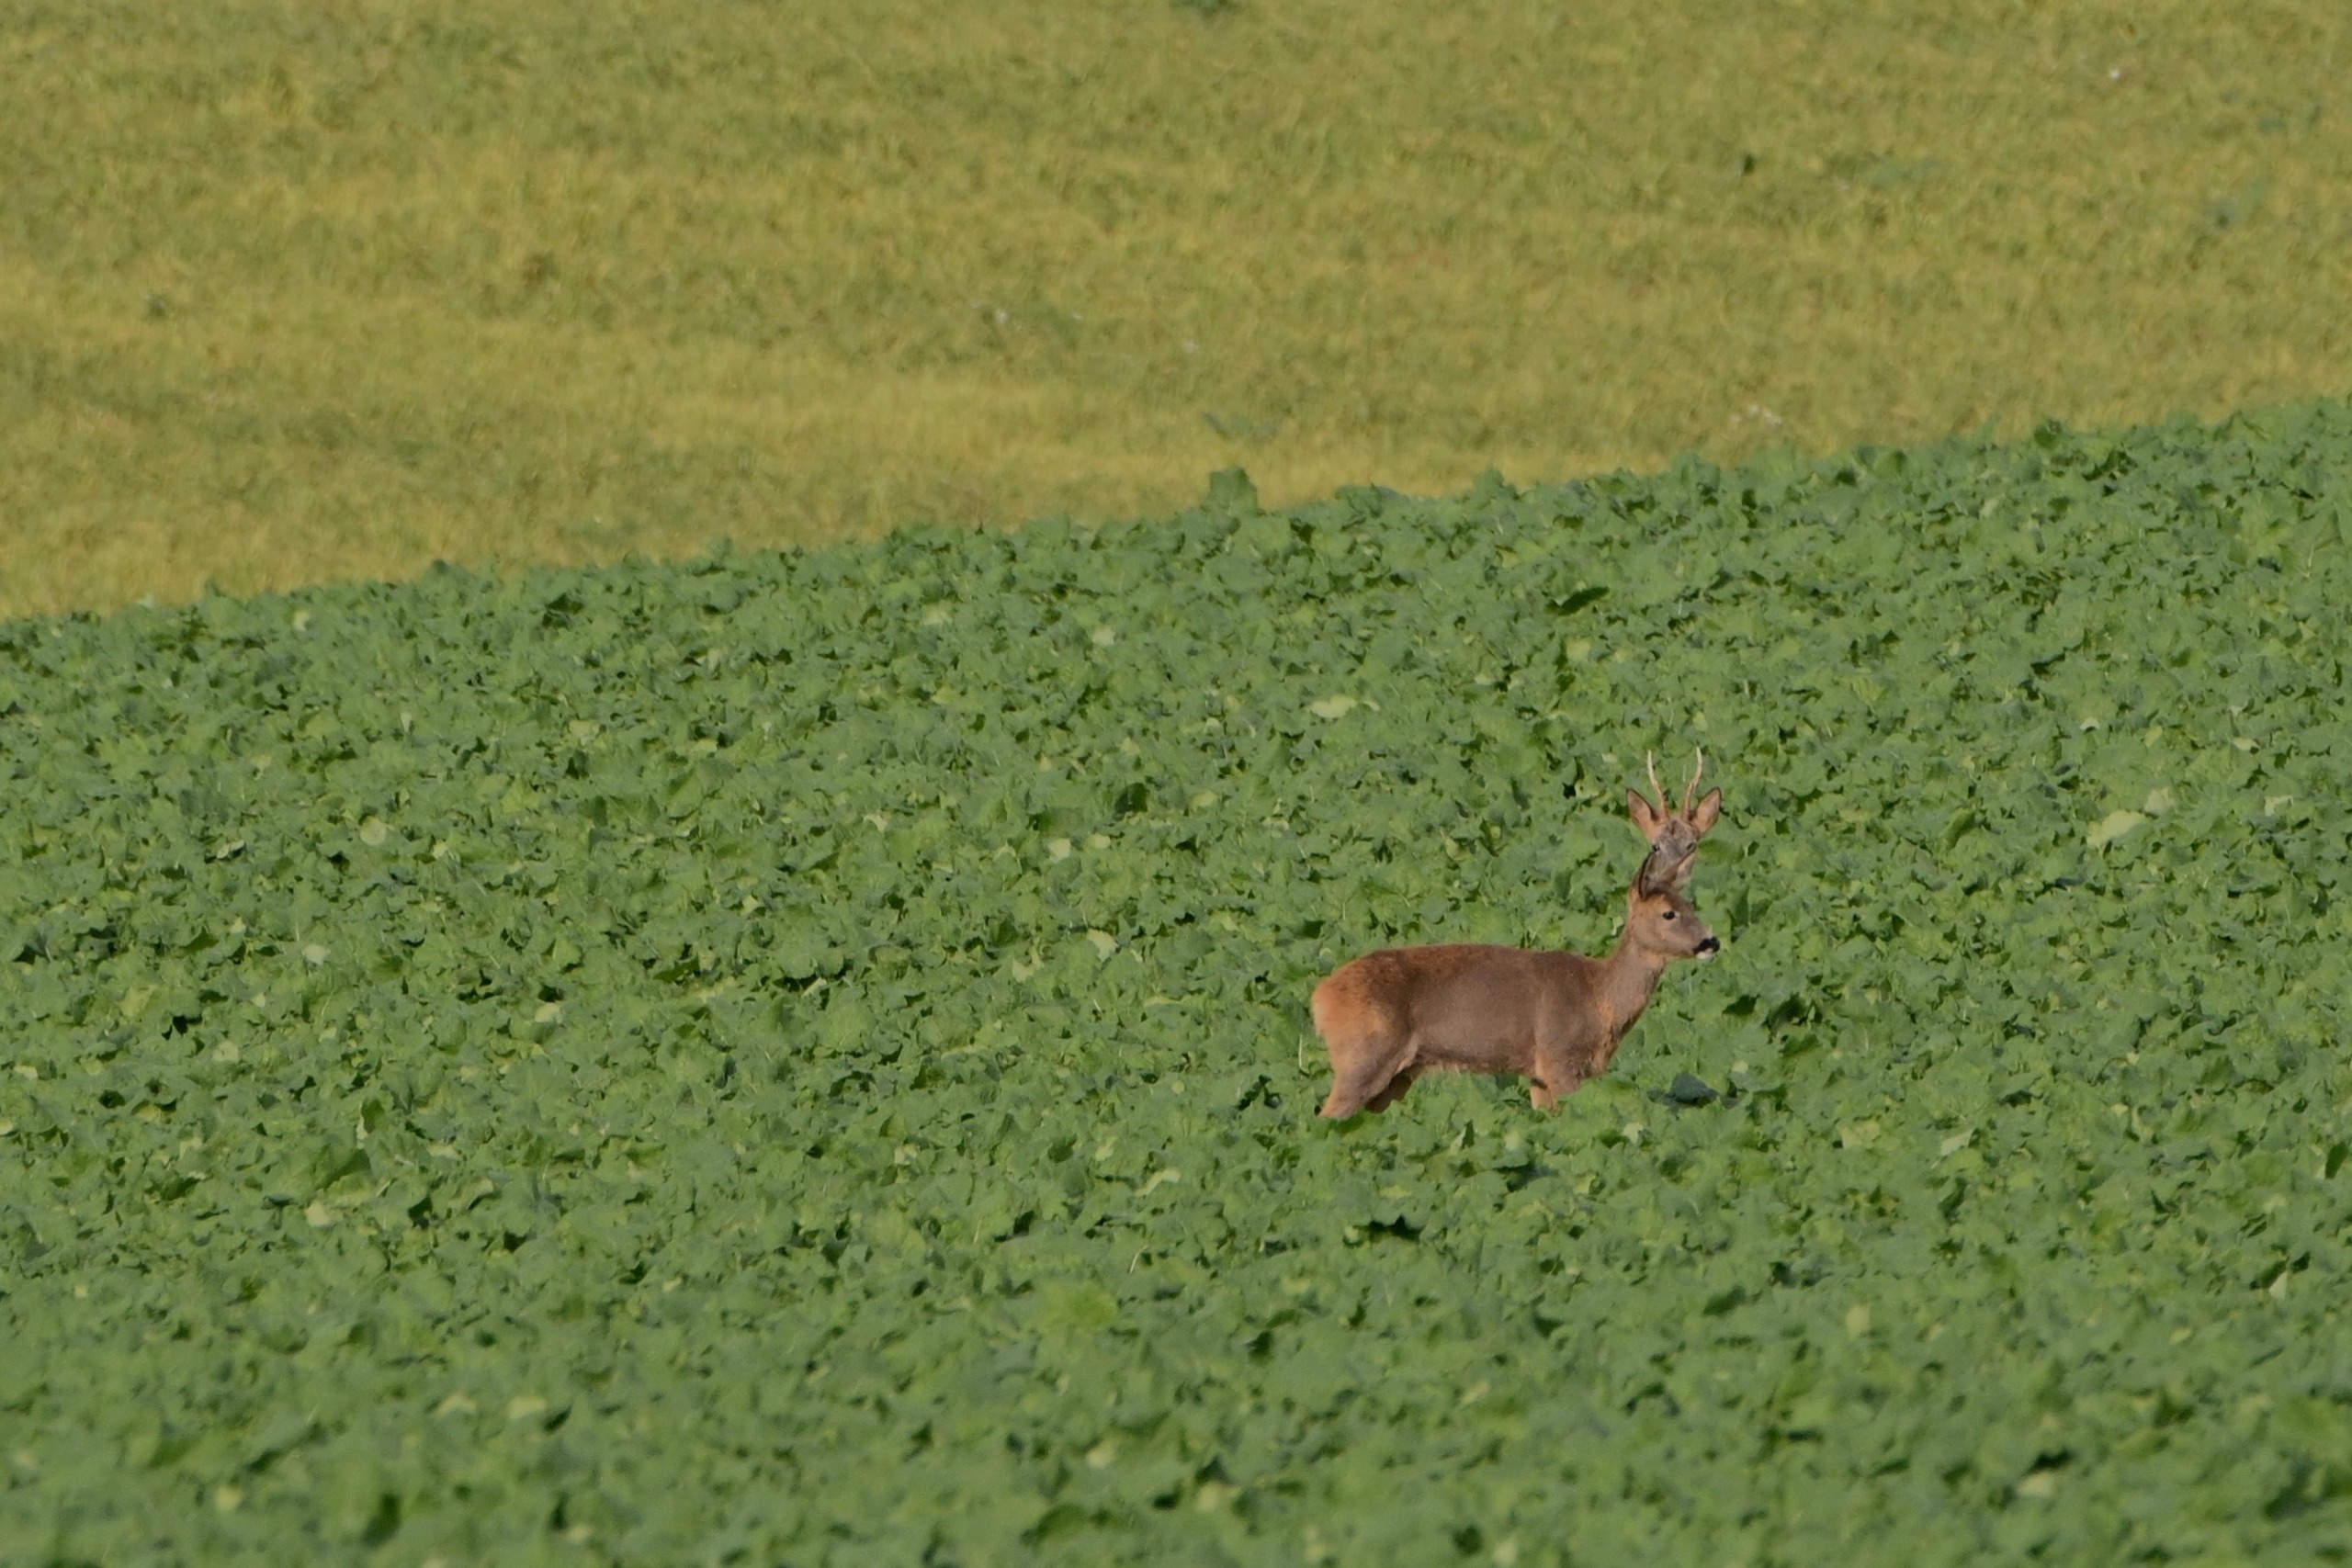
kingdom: Animalia
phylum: Chordata
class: Mammalia
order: Artiodactyla
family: Cervidae
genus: Capreolus
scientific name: Capreolus capreolus
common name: Rådyr
